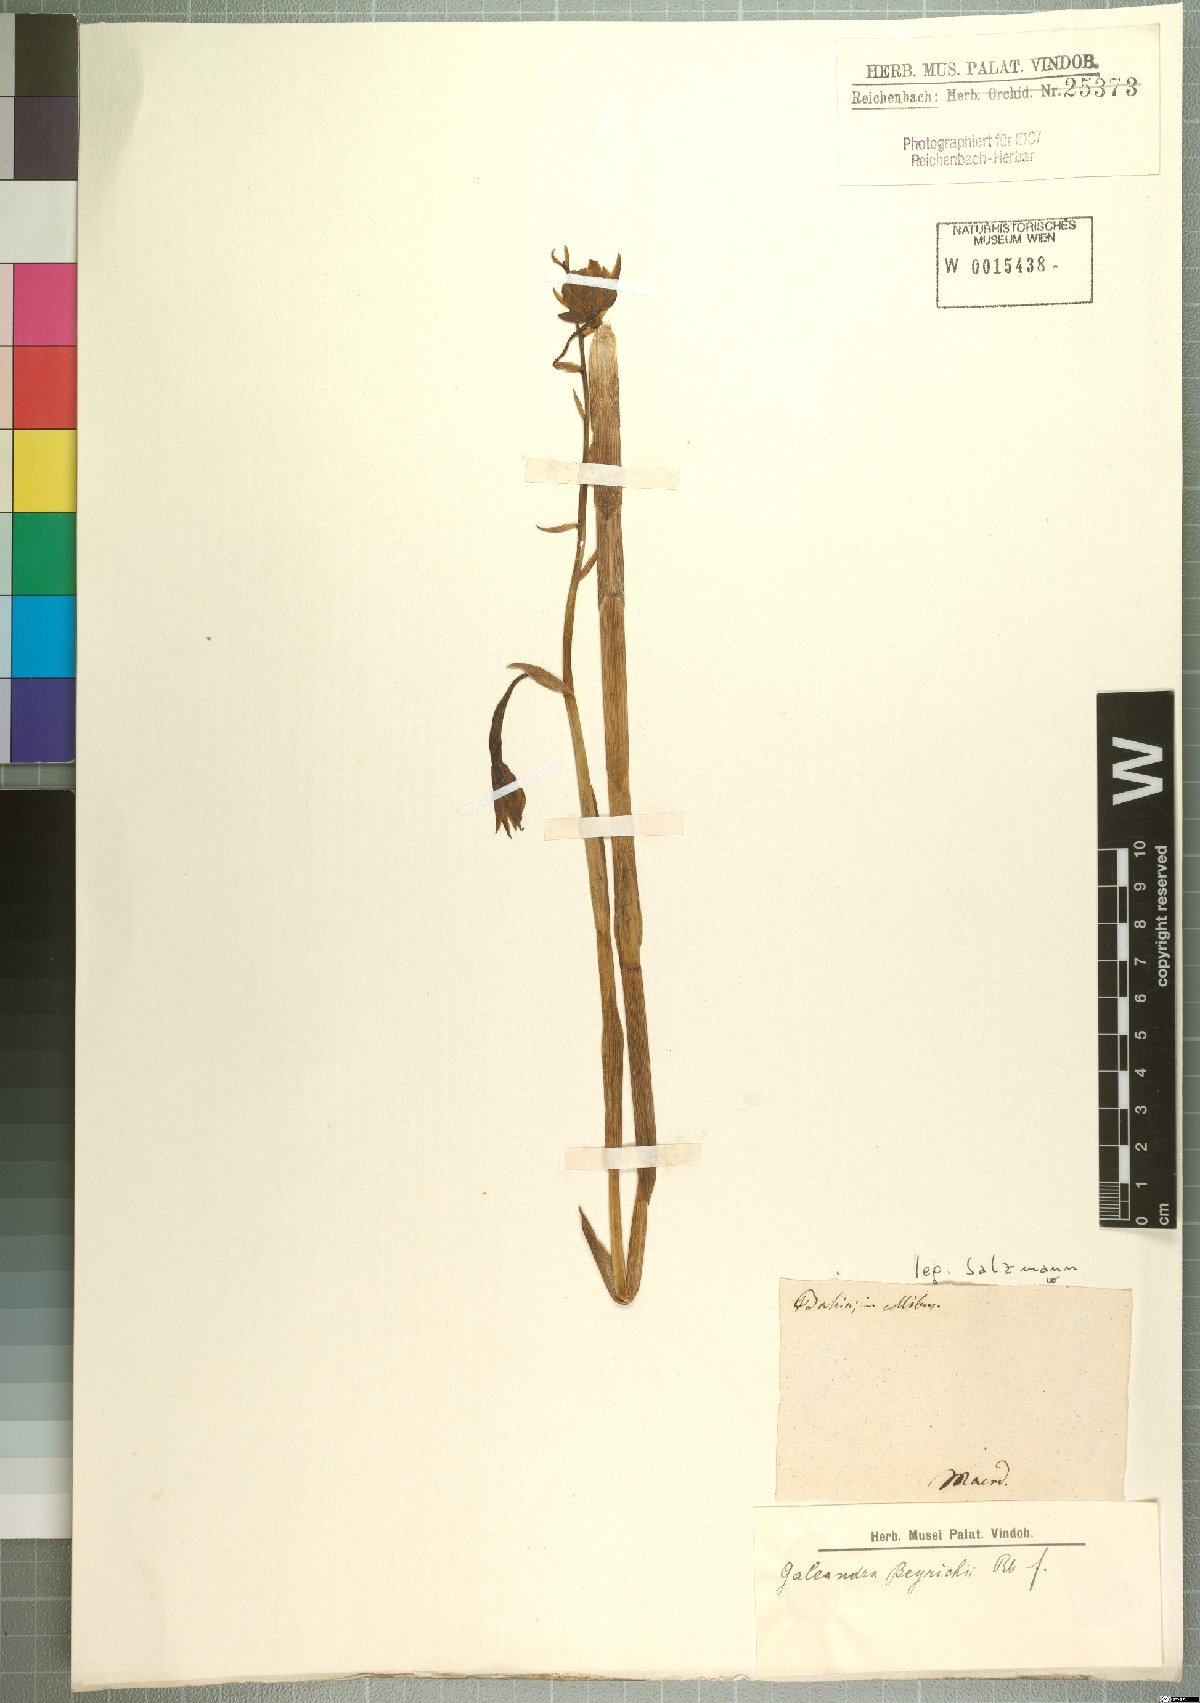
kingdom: Plantae
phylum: Tracheophyta
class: Liliopsida
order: Asparagales
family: Orchidaceae
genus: Galeandra
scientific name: Galeandra beyrichii
